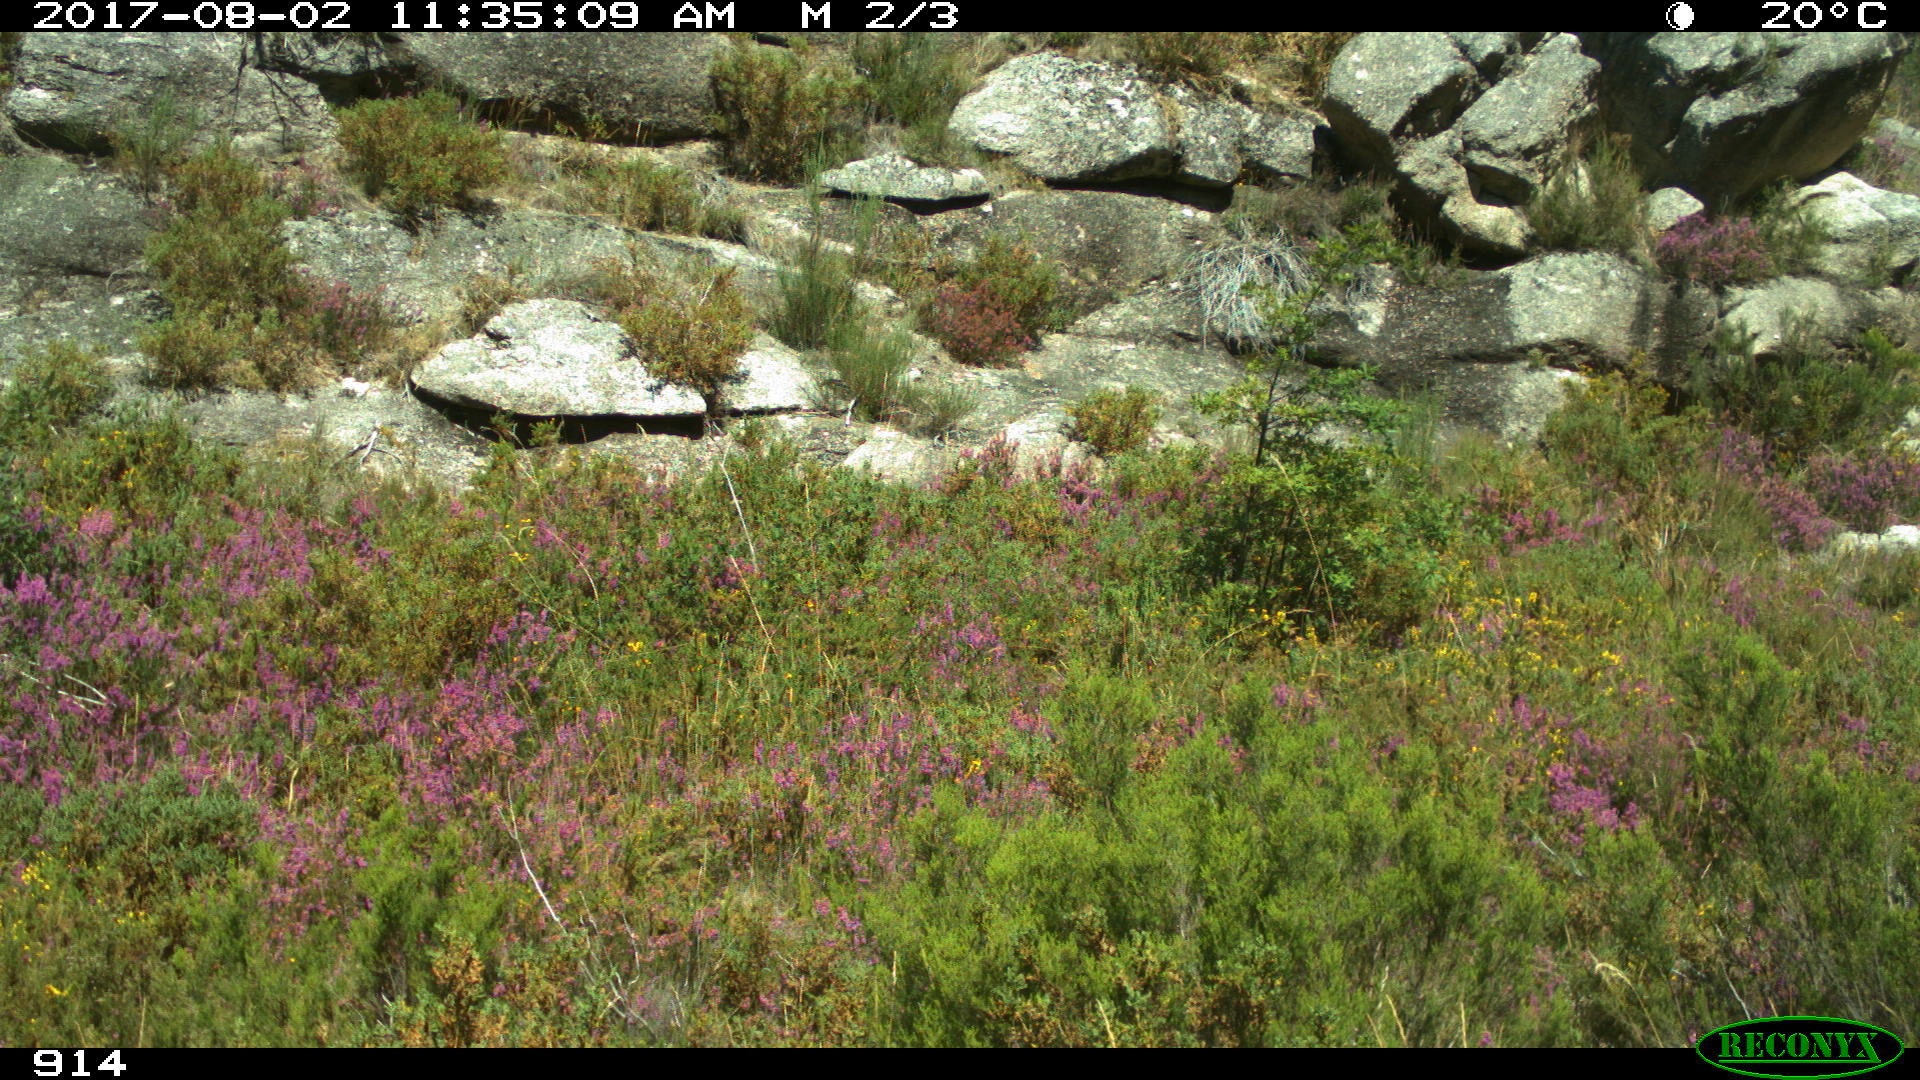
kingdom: Animalia
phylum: Chordata
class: Mammalia
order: Artiodactyla
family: Cervidae
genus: Capreolus
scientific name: Capreolus capreolus
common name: Western roe deer
